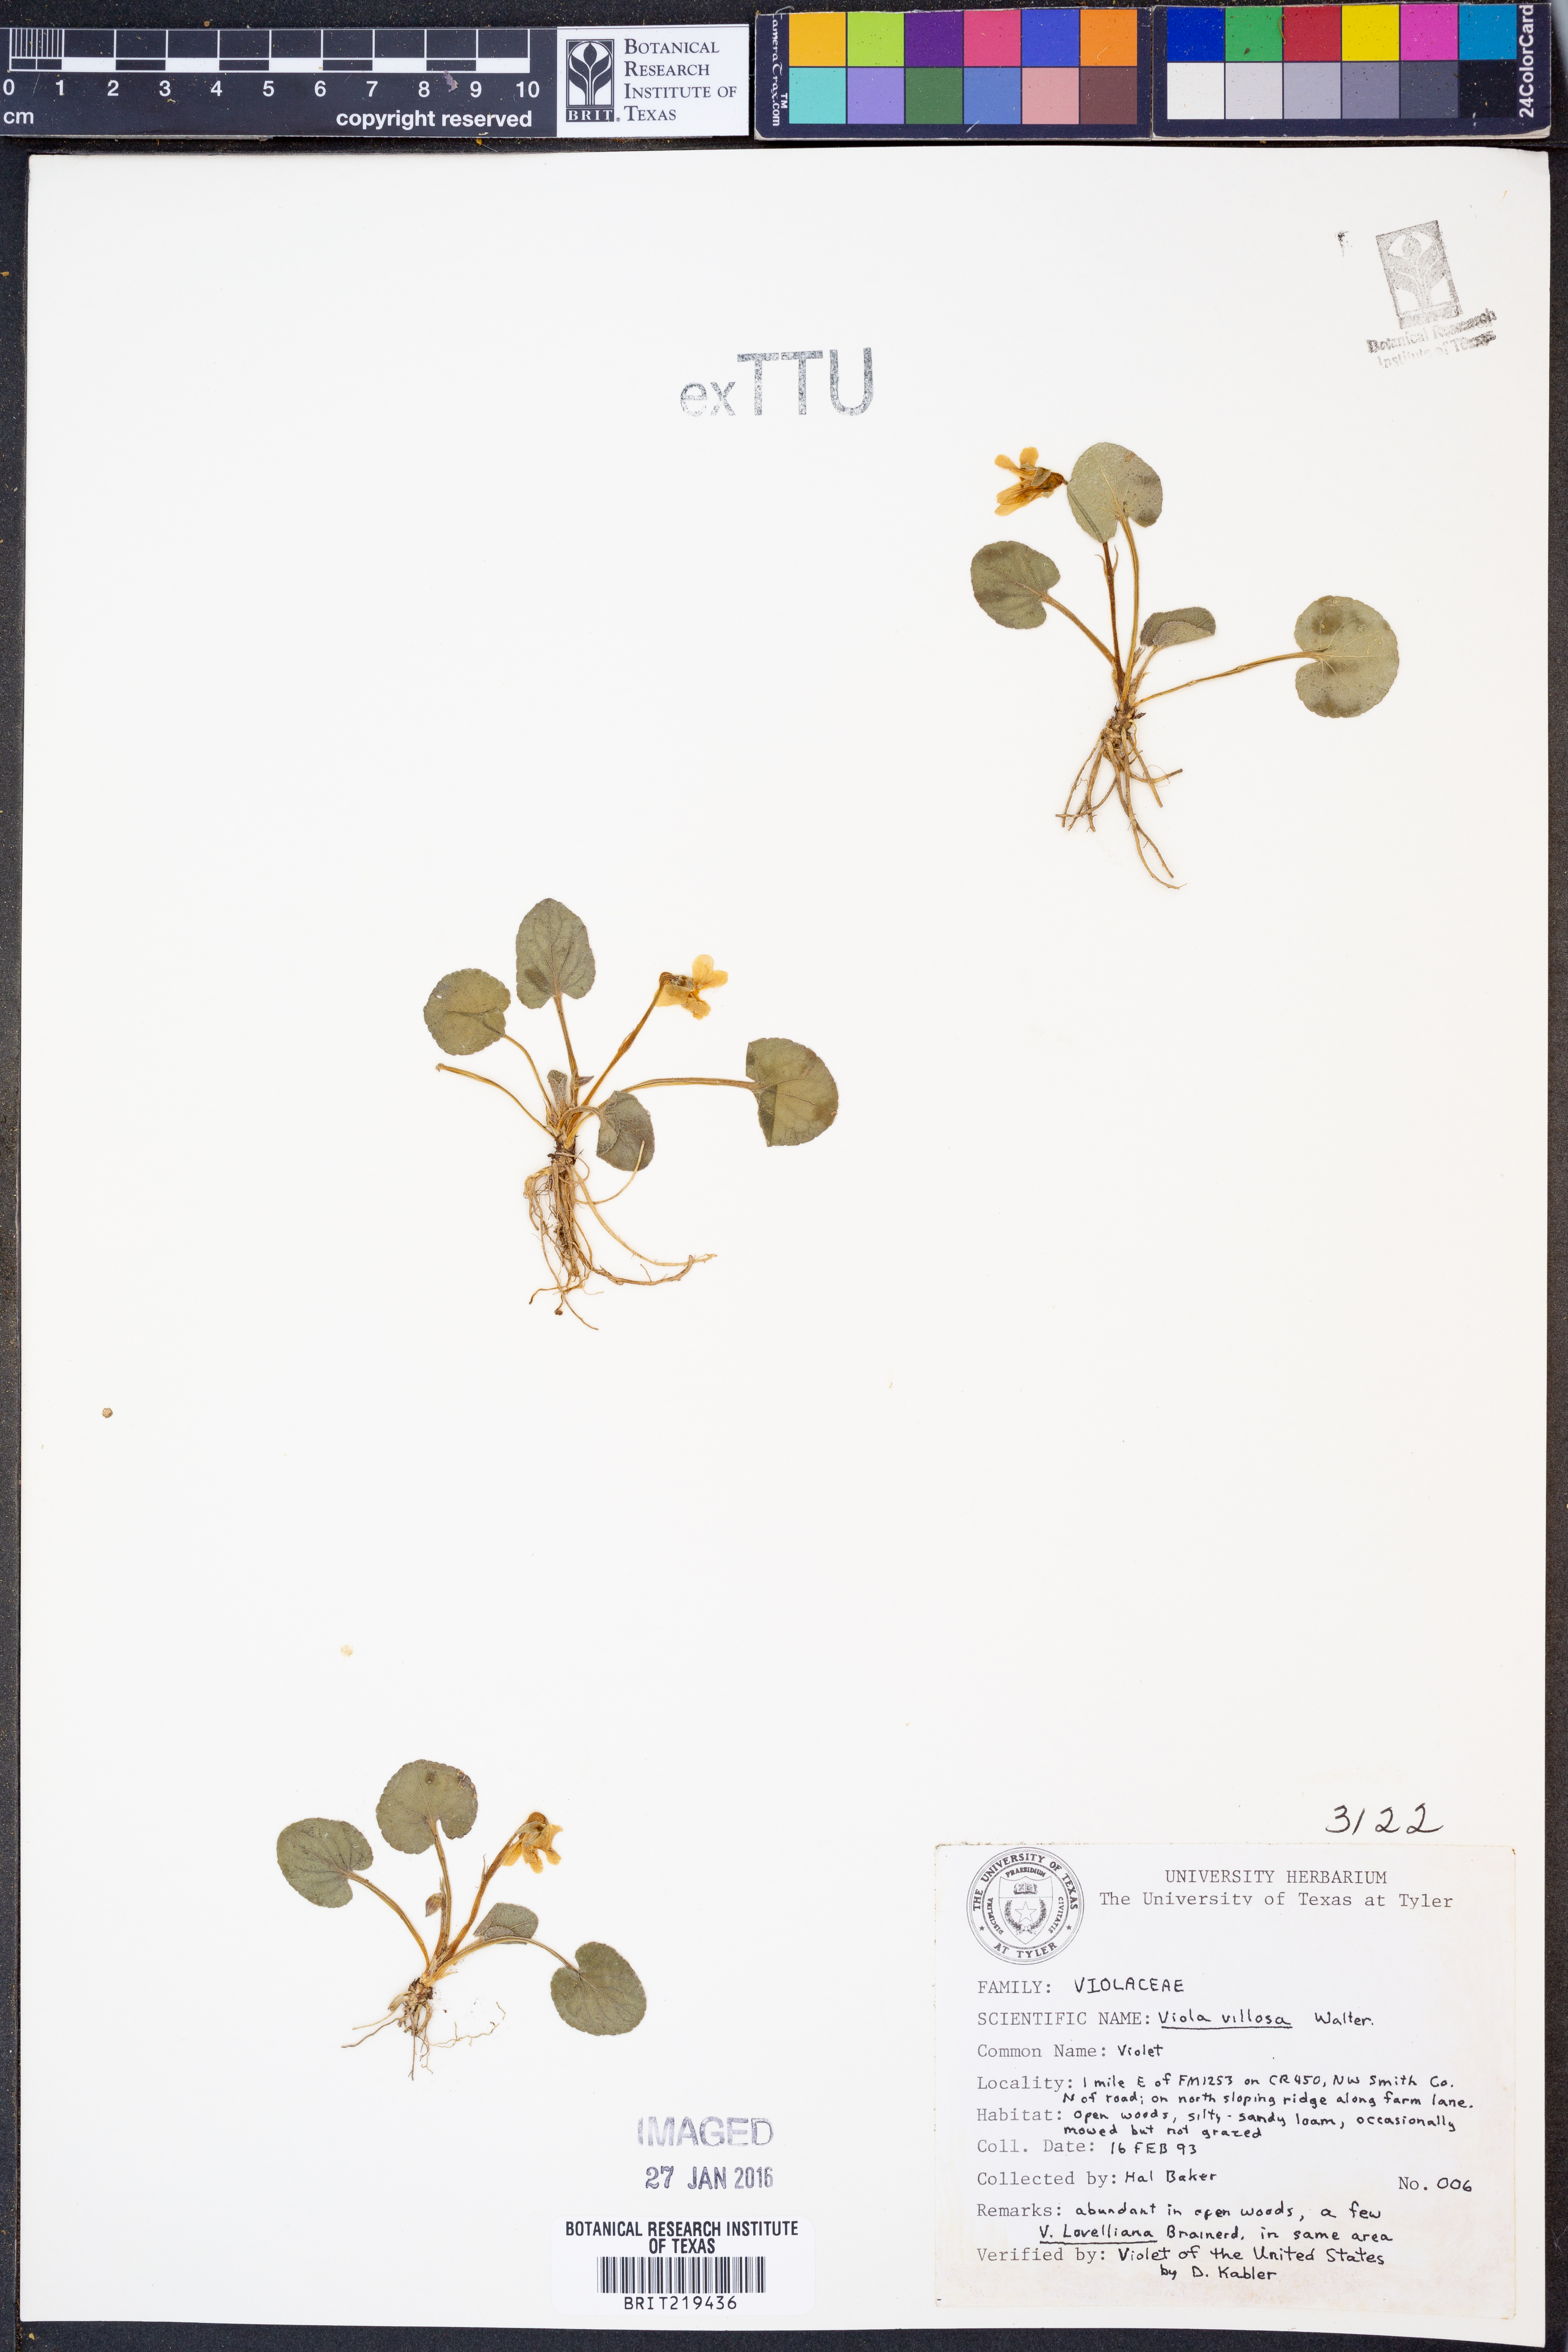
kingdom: Plantae
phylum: Tracheophyta
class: Magnoliopsida
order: Malpighiales
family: Violaceae
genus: Viola
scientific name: Viola villosa
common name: Carolina violet
